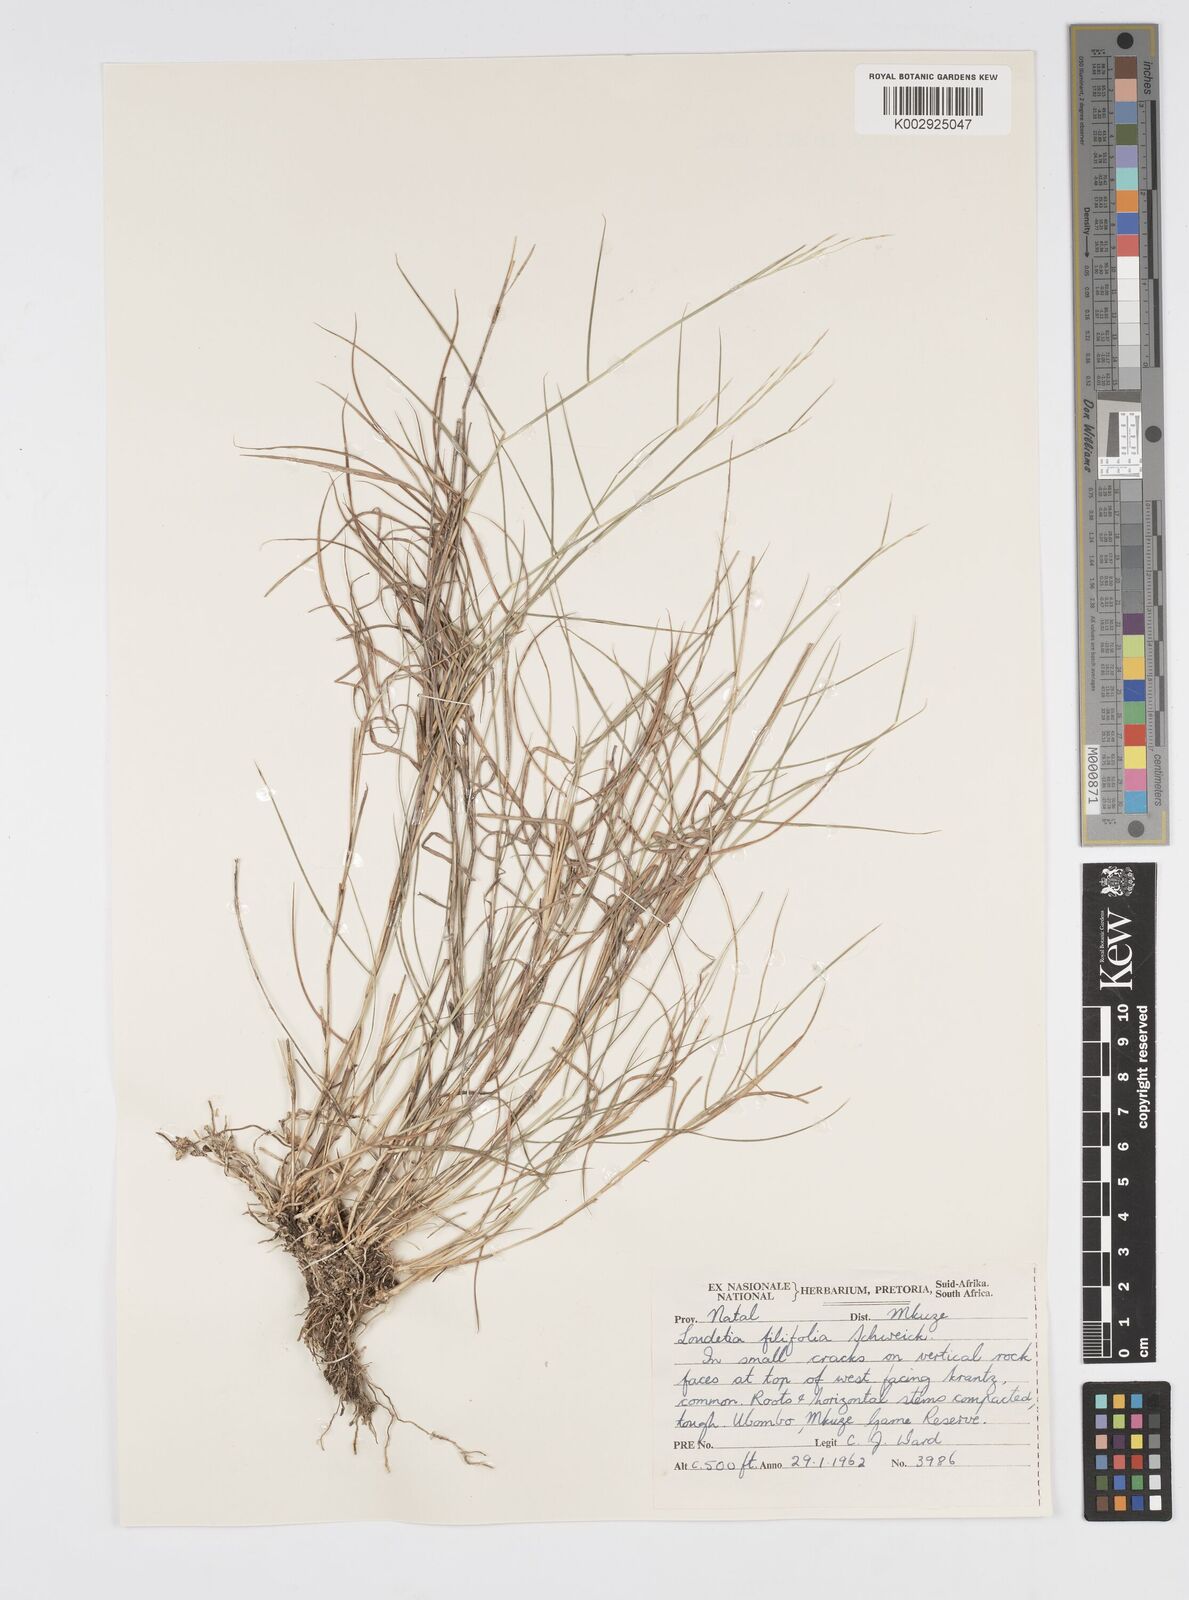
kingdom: Plantae
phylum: Tracheophyta
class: Liliopsida
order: Poales
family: Poaceae
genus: Loudetia
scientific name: Loudetia filifolia
